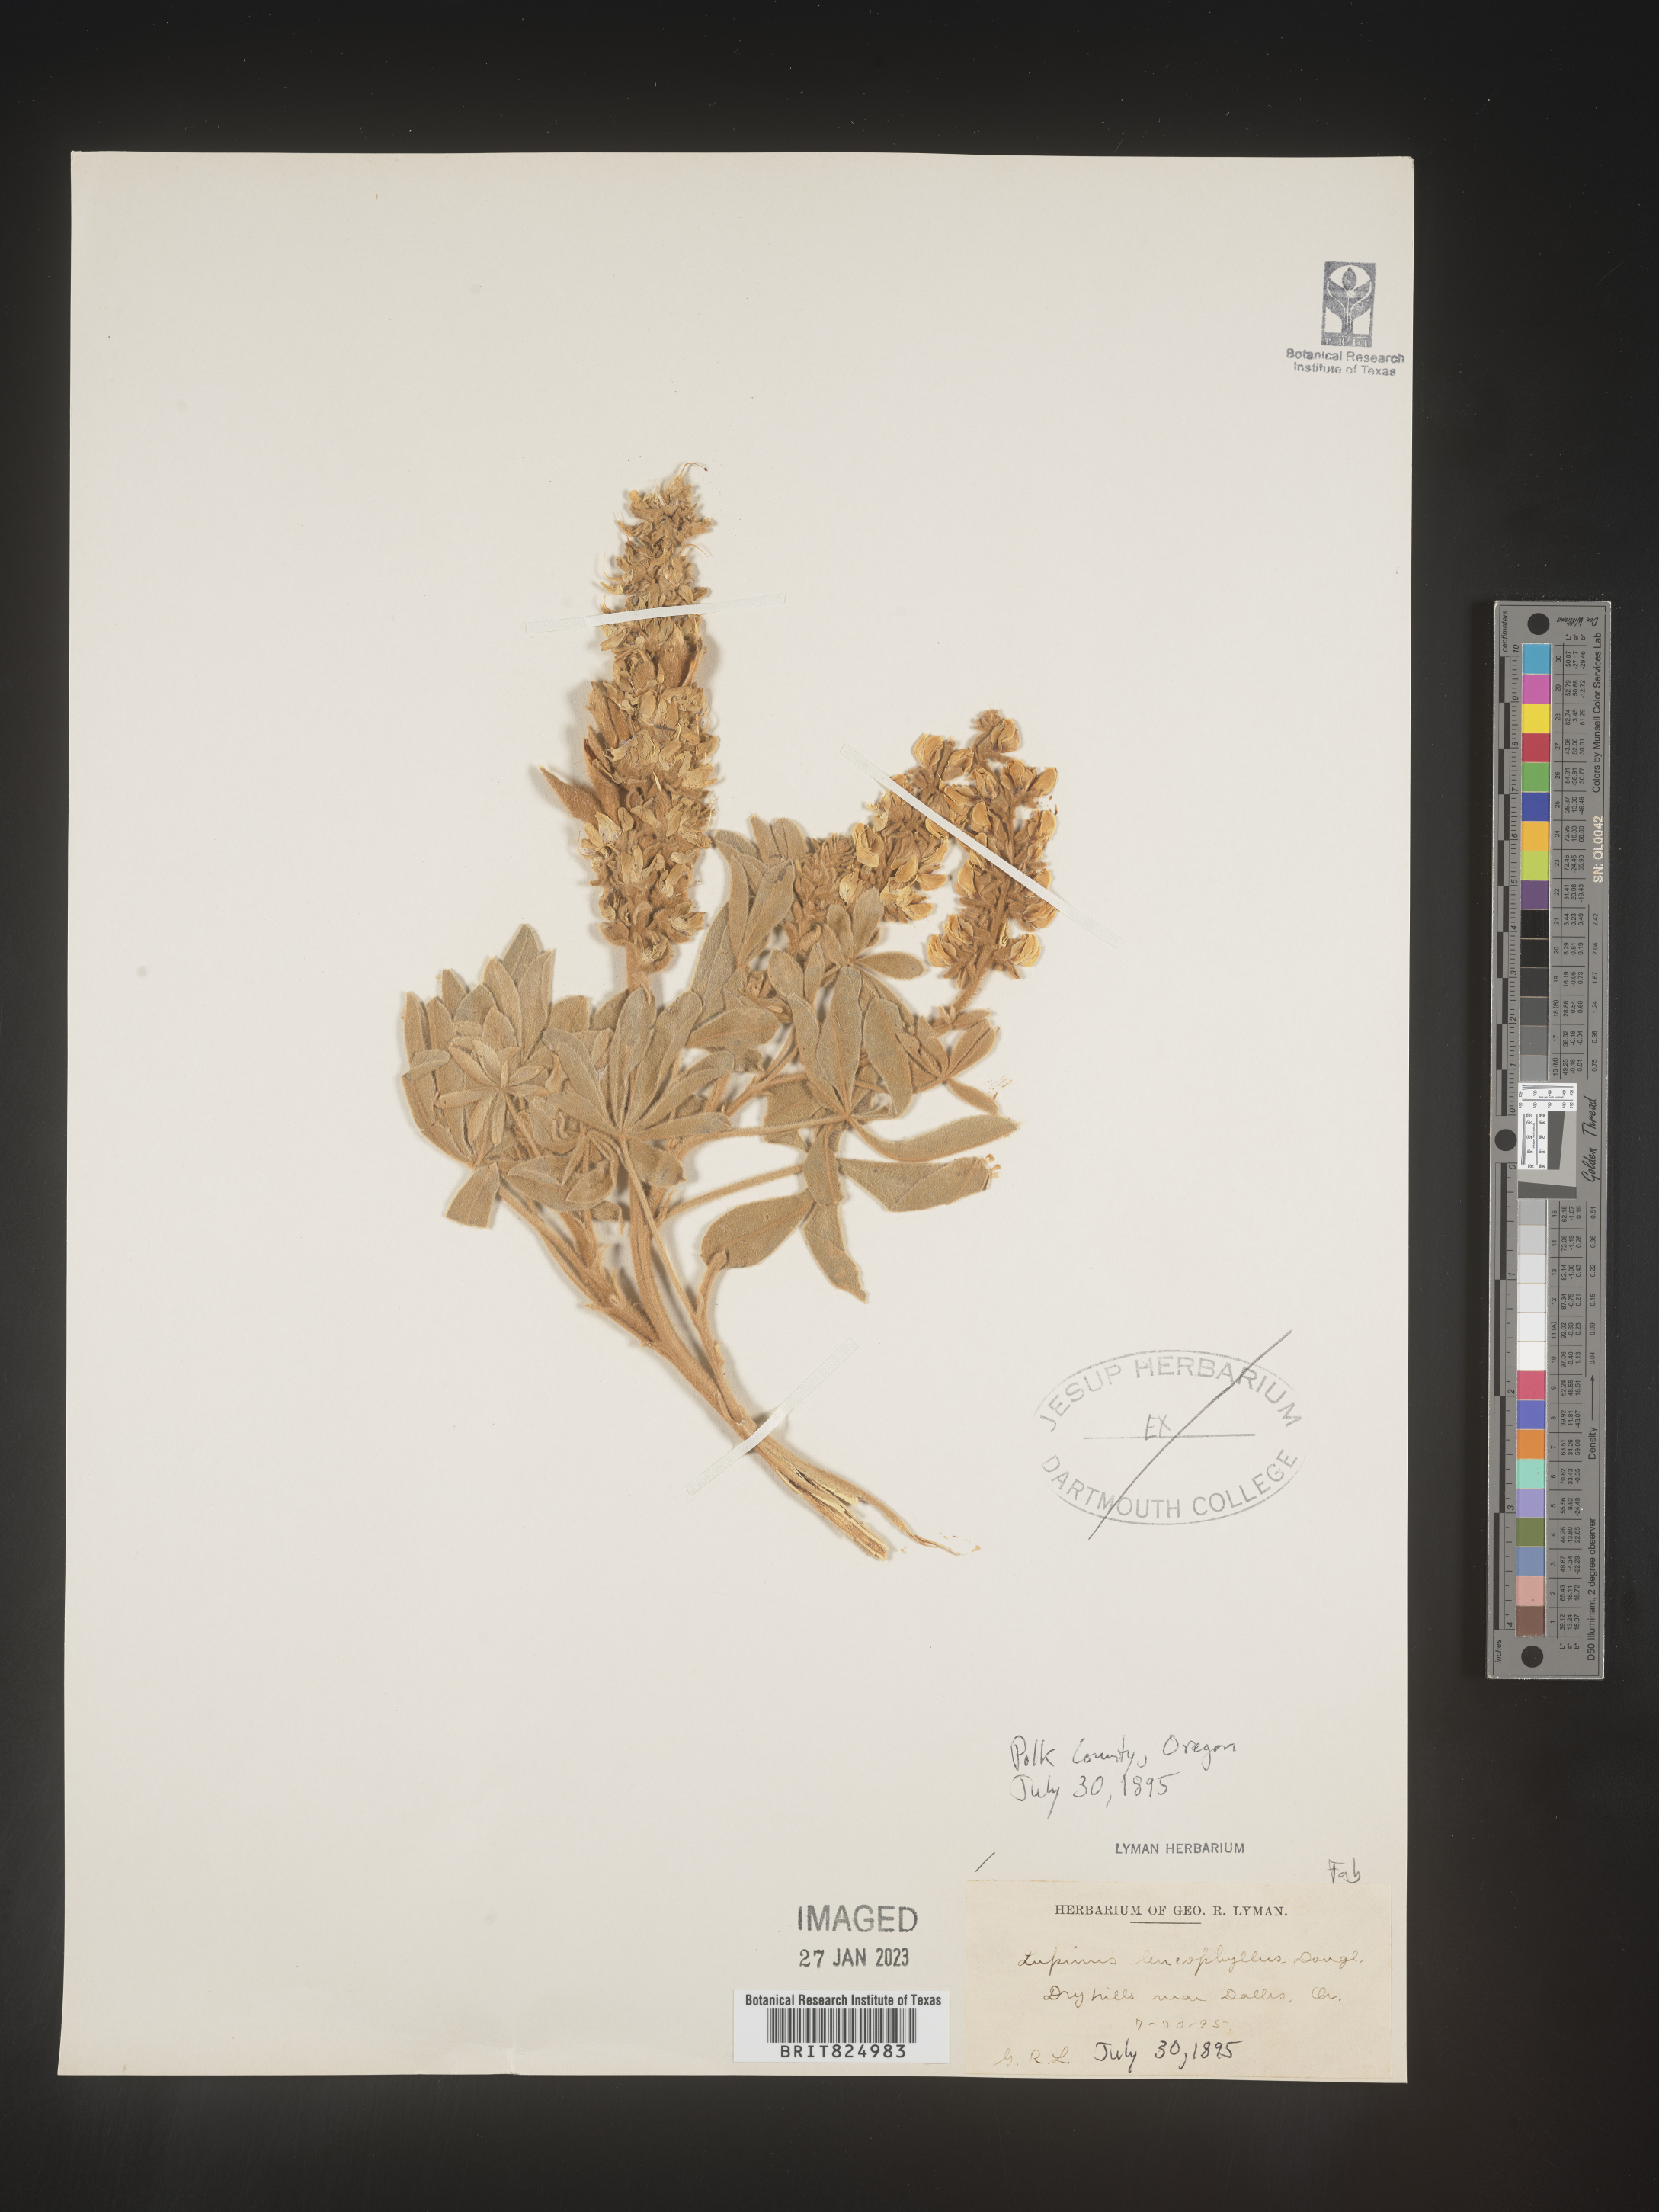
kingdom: Plantae
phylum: Tracheophyta
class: Magnoliopsida
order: Fabales
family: Fabaceae
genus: Lupinus
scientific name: Lupinus
